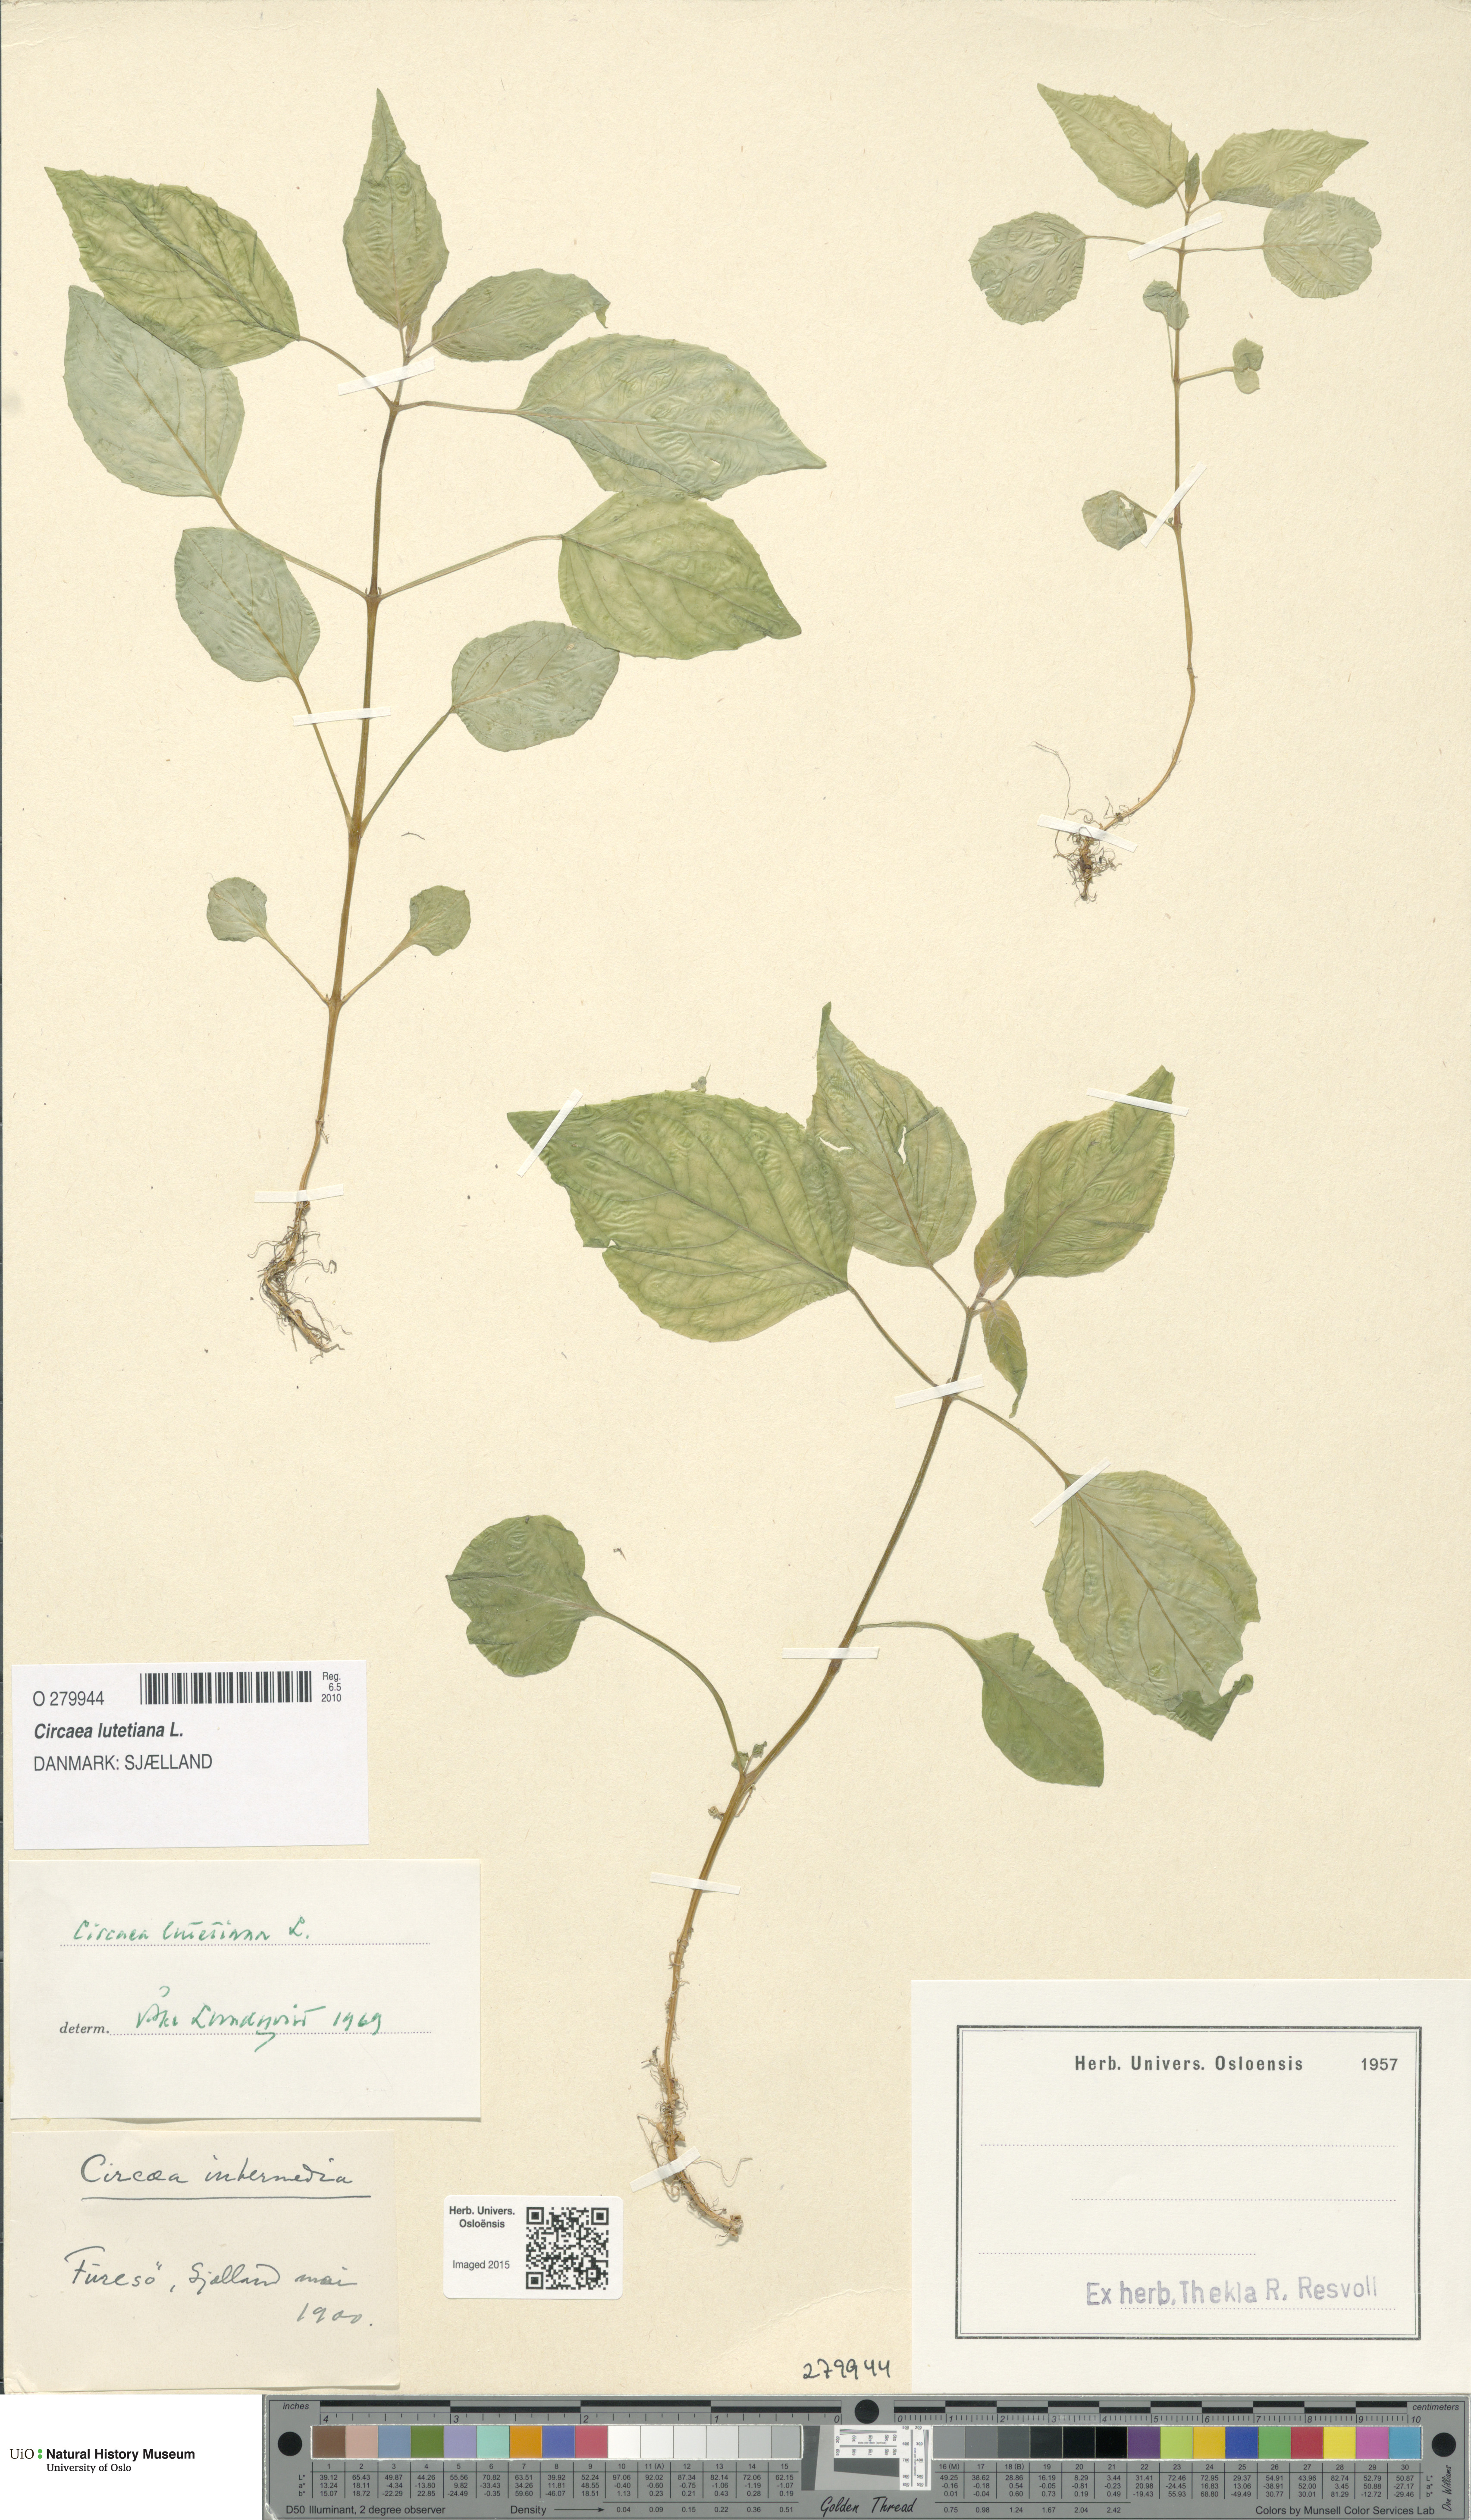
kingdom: Plantae
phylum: Tracheophyta
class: Magnoliopsida
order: Myrtales
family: Onagraceae
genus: Circaea
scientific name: Circaea lutetiana
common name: Enchanter's-nightshade
